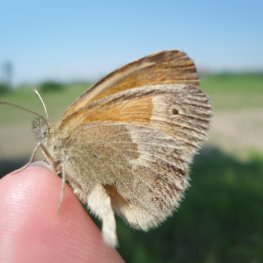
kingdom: Animalia
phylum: Arthropoda
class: Insecta
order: Lepidoptera
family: Nymphalidae
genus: Coenonympha
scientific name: Coenonympha tullia
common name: Large Heath
